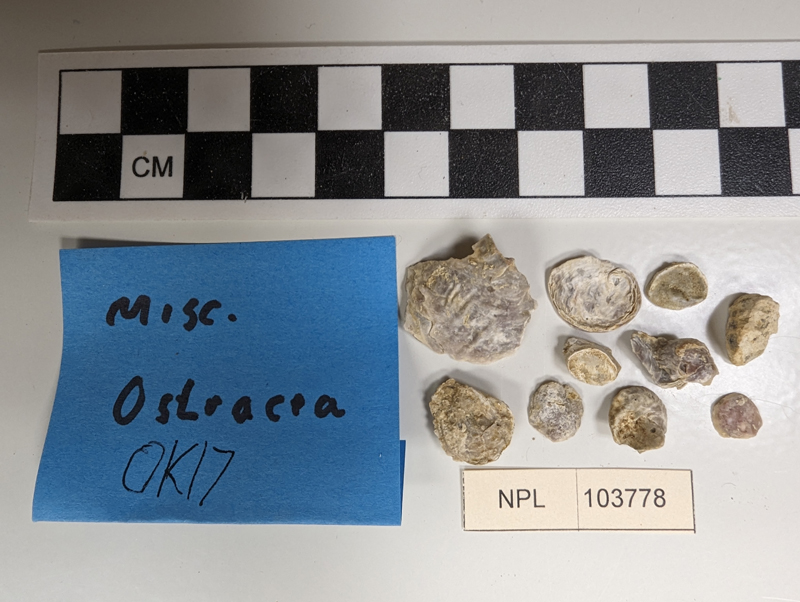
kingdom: Animalia
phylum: Mollusca
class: Bivalvia
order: Ostreida
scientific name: Ostreida
